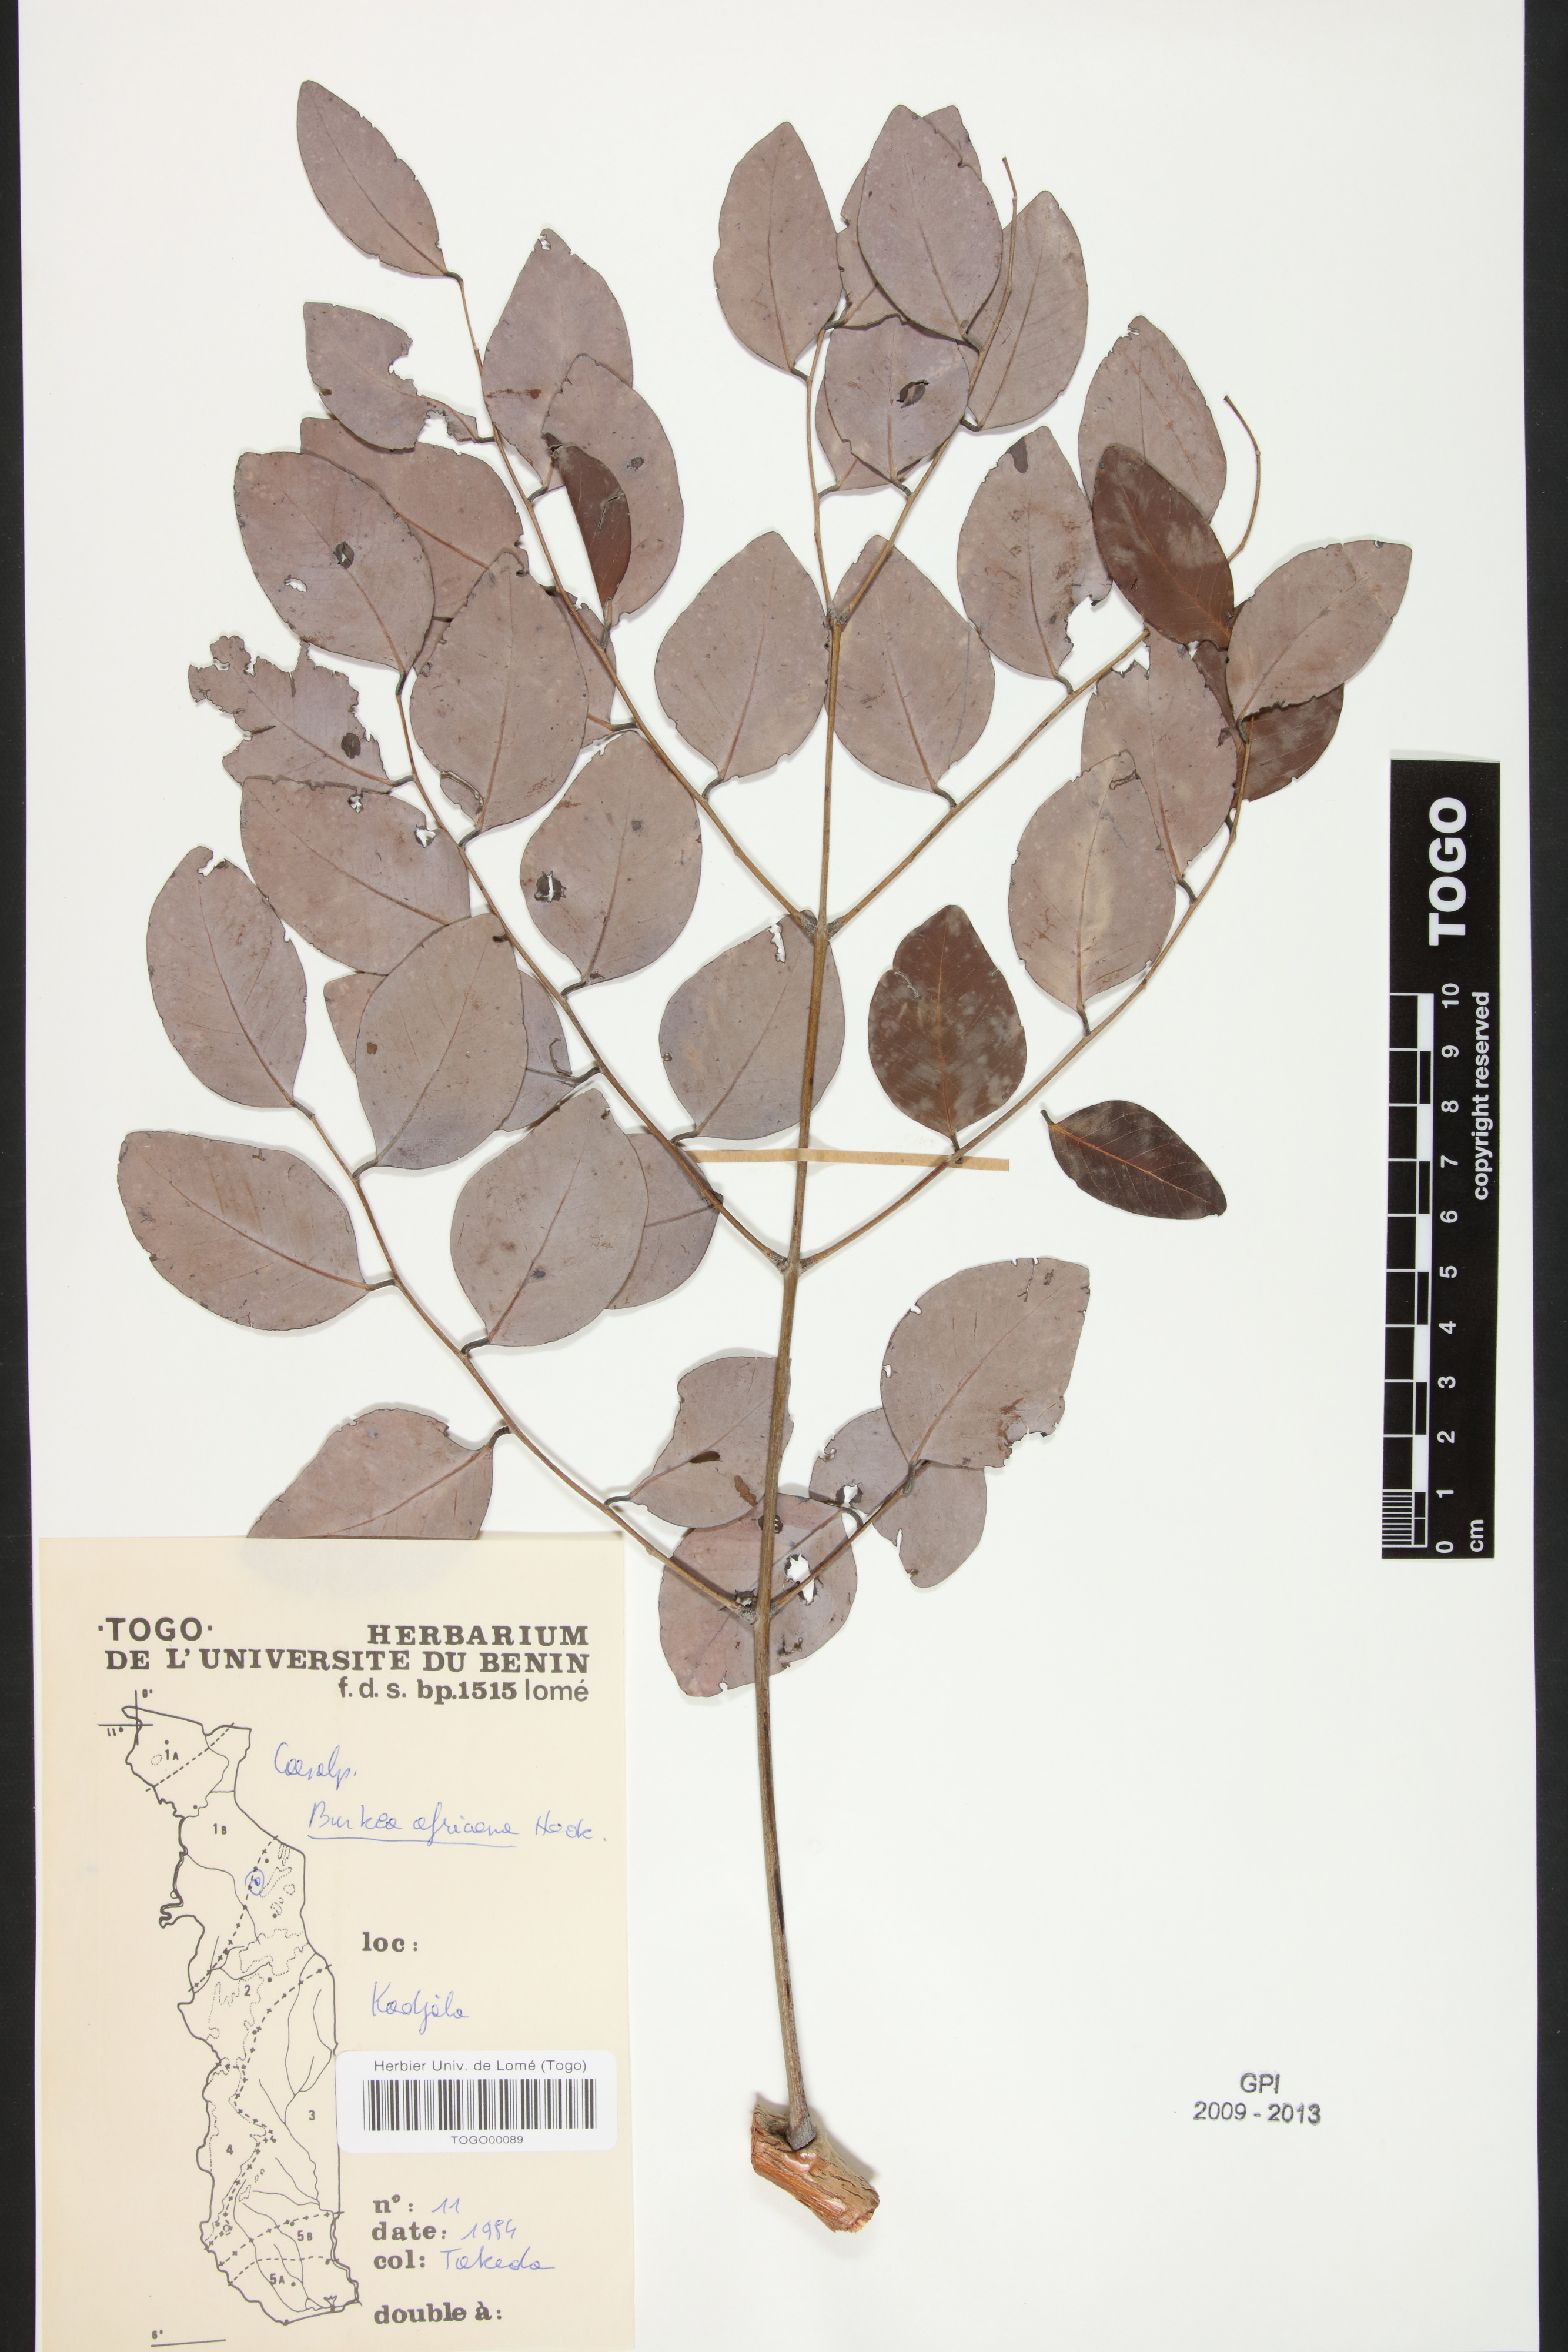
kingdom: Plantae
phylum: Tracheophyta
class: Magnoliopsida
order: Fabales
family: Fabaceae
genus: Burkea
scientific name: Burkea africana
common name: Mkalati tree
